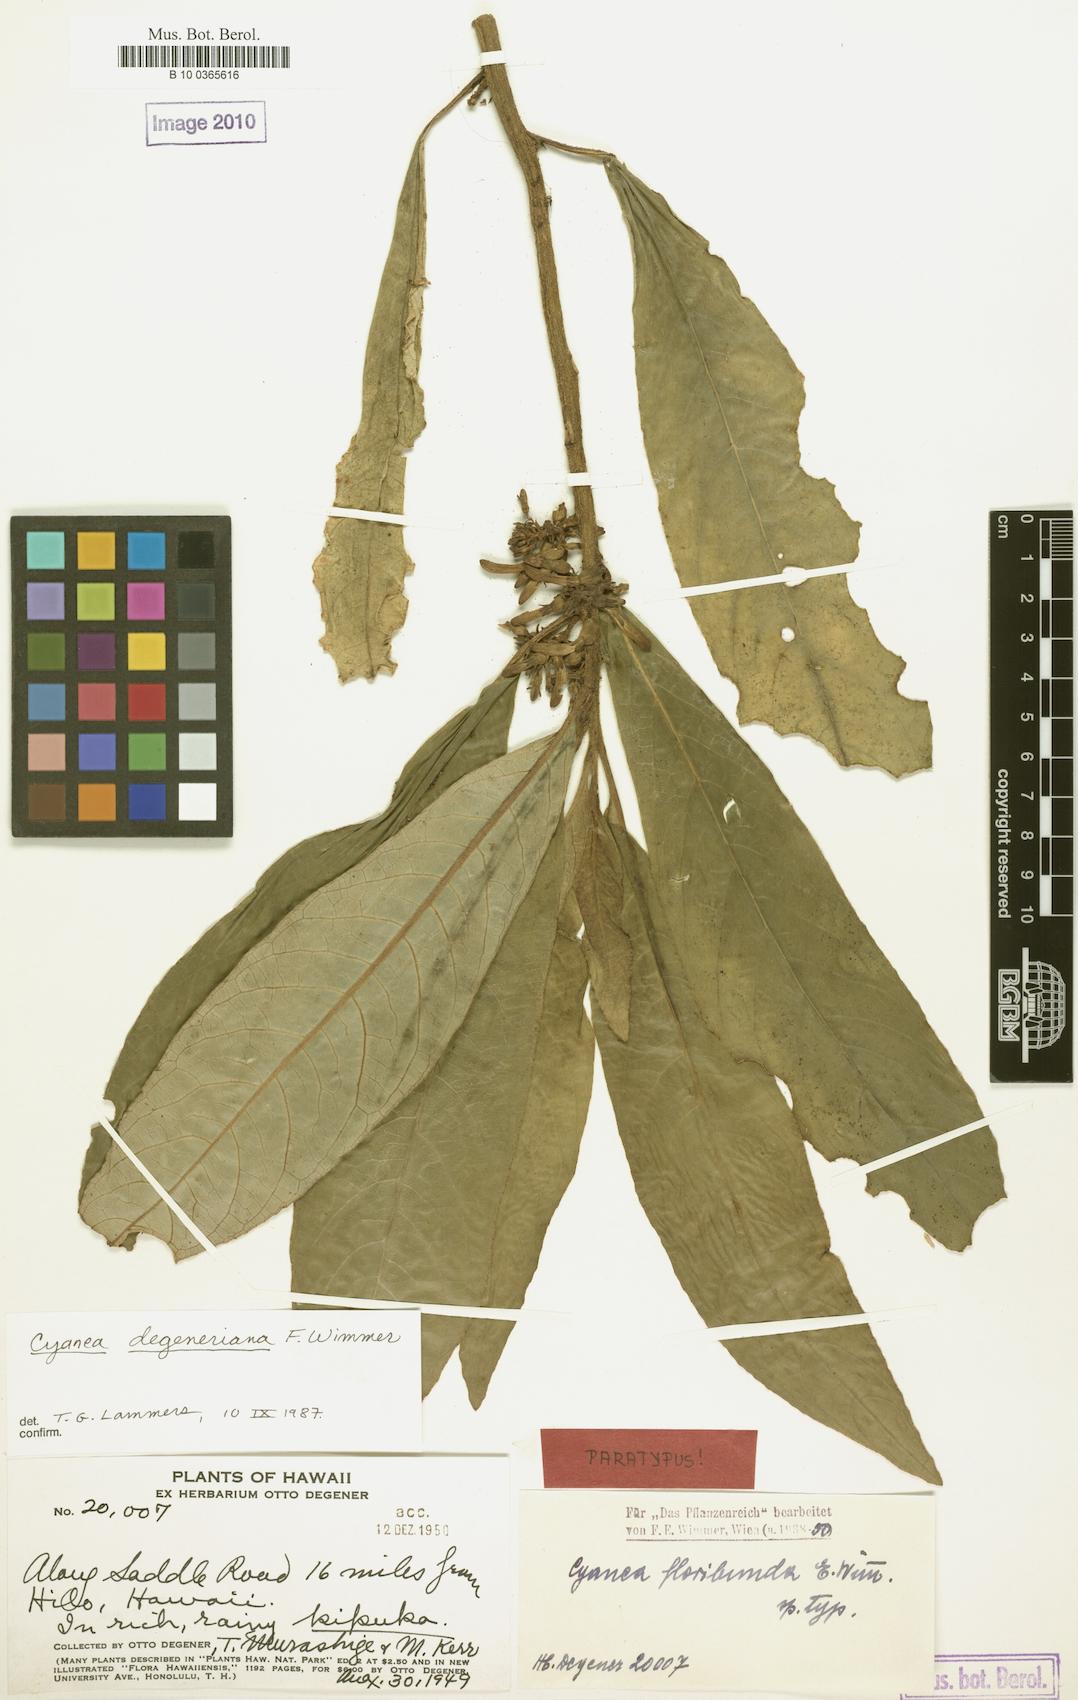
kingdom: Plantae
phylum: Tracheophyta
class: Magnoliopsida
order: Asterales
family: Campanulaceae
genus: Cyanea
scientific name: Cyanea hirtella
